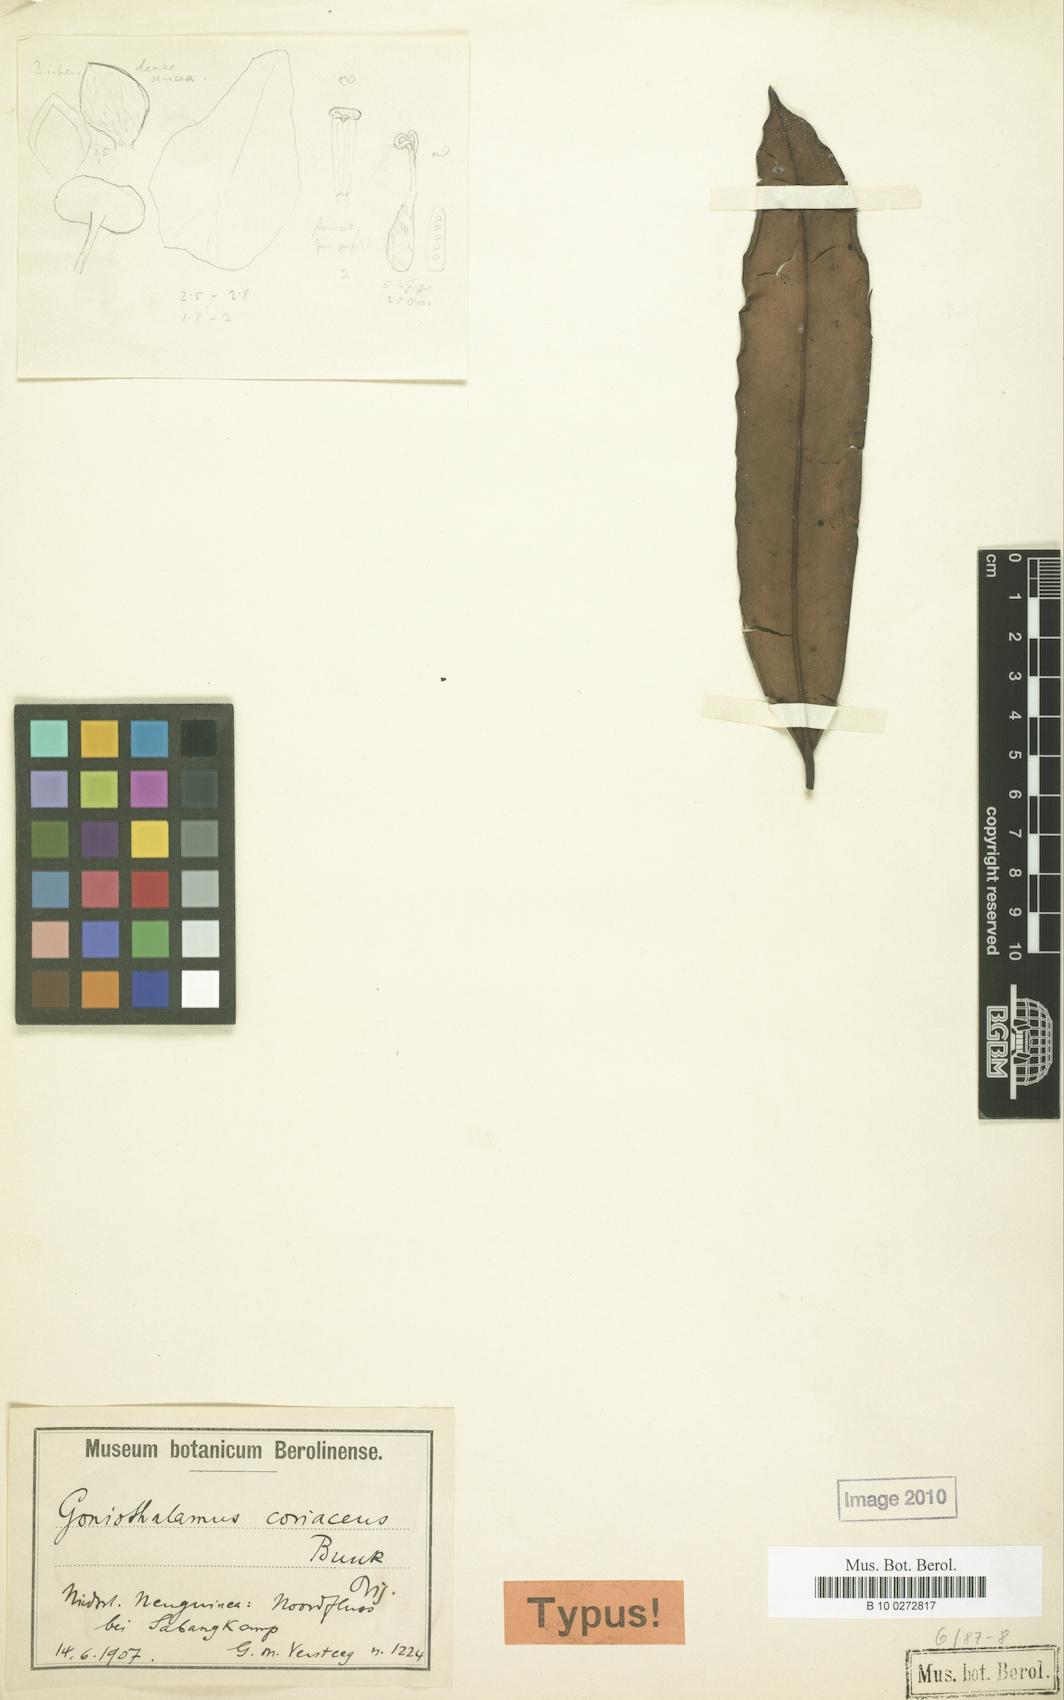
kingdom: Plantae
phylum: Tracheophyta
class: Magnoliopsida
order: Magnoliales
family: Annonaceae
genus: Goniothalamus
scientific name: Goniothalamus coriaceus
